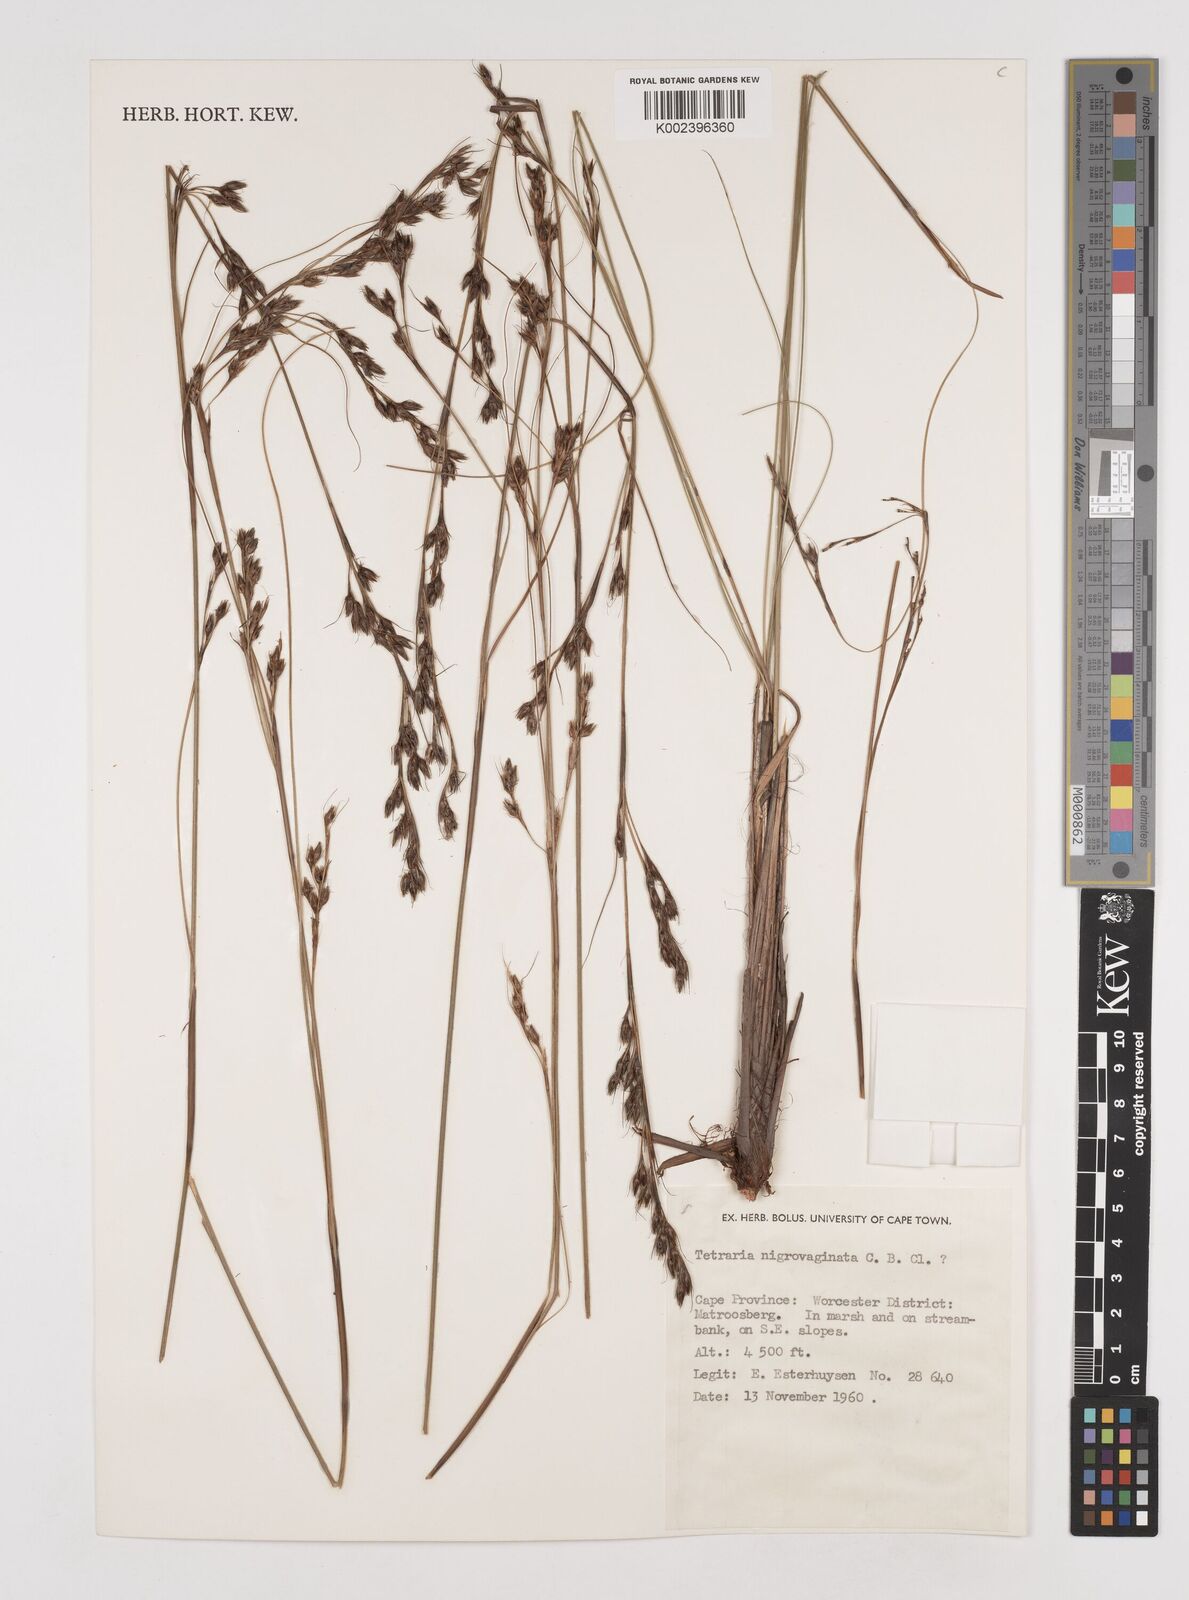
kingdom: Plantae
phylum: Tracheophyta
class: Liliopsida
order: Poales
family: Cyperaceae
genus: Tetraria
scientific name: Tetraria
